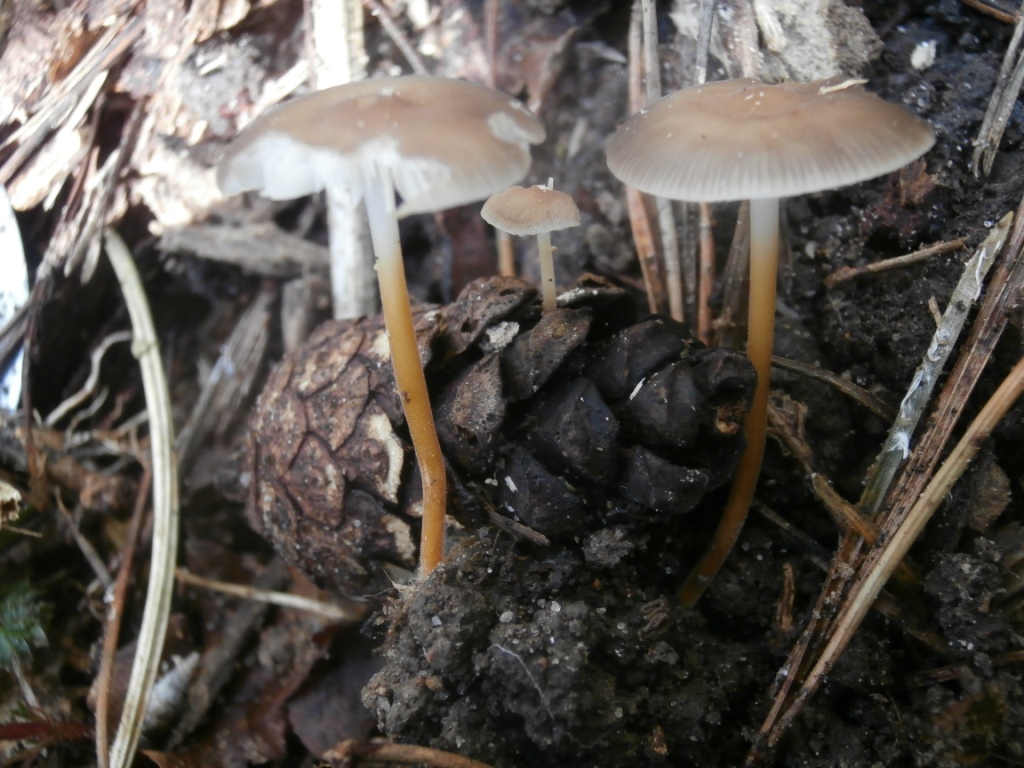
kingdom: Fungi
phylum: Basidiomycota
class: Agaricomycetes
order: Agaricales
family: Physalacriaceae
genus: Strobilurus
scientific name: Strobilurus tenacellus
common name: sommer-koglehat
